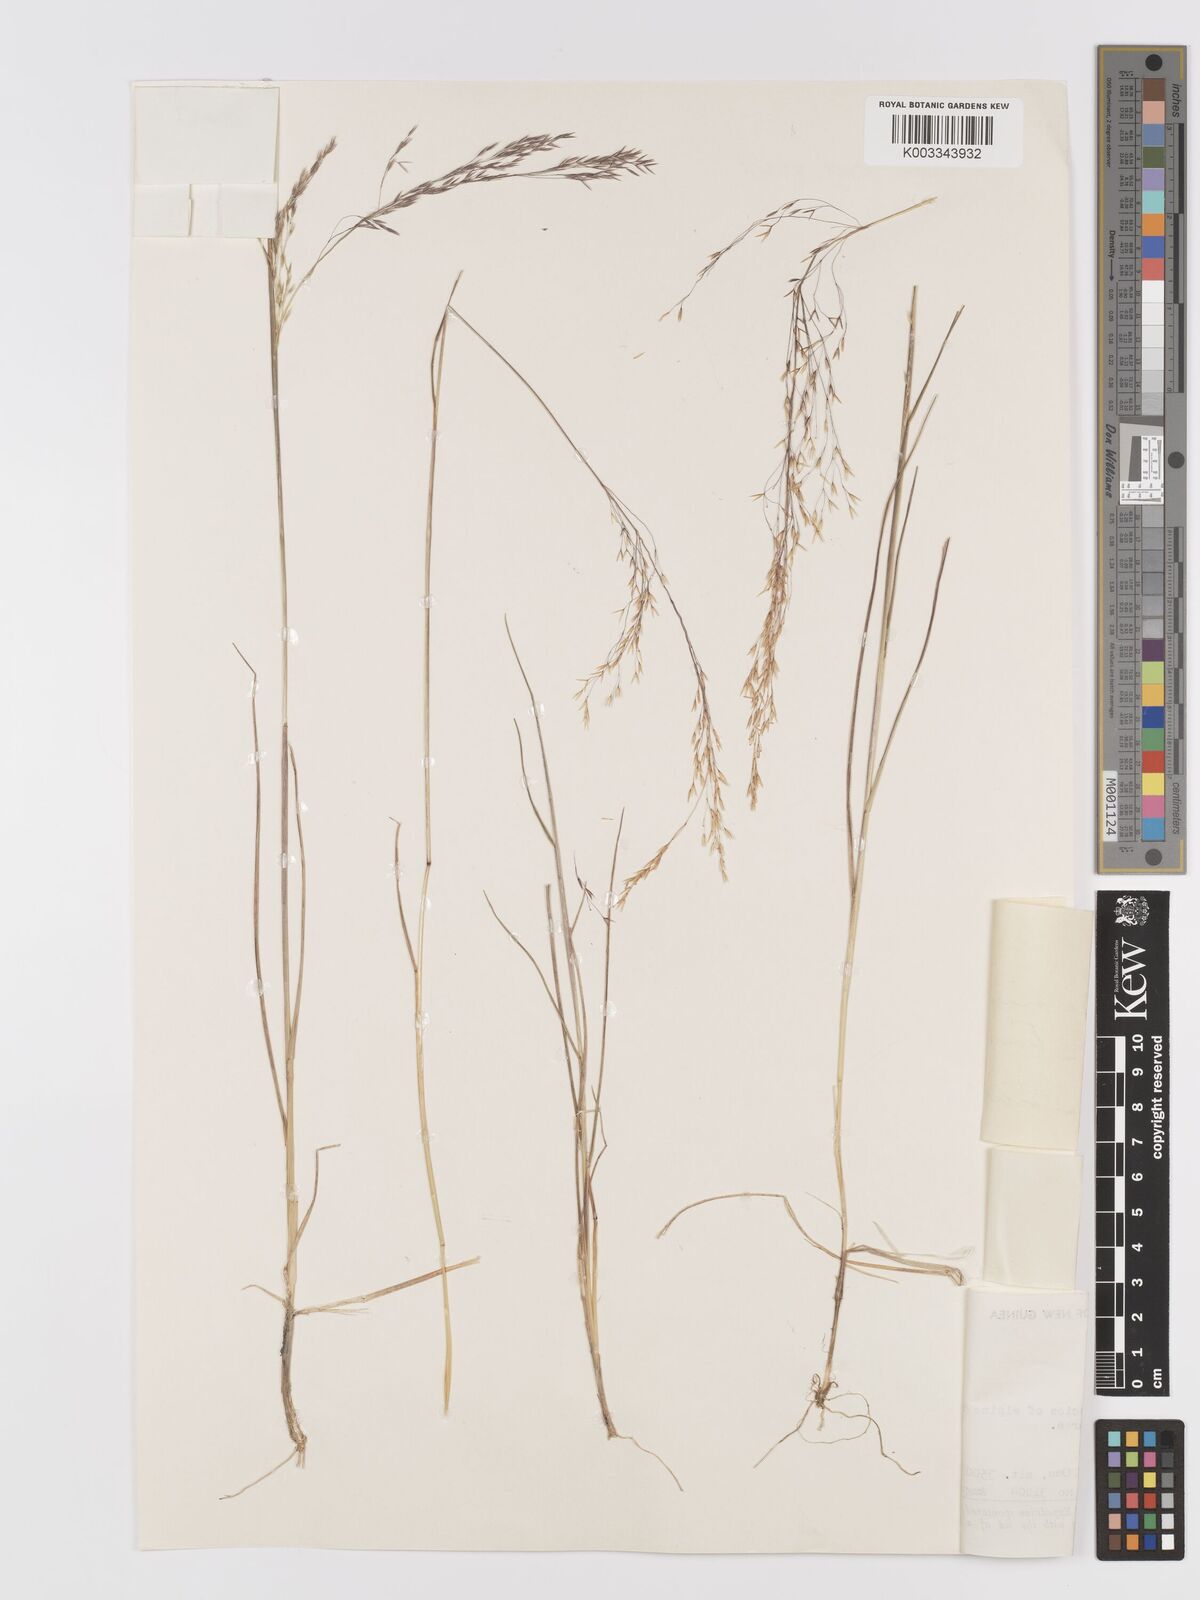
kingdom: Plantae
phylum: Tracheophyta
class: Liliopsida
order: Poales
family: Poaceae
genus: Agrostis
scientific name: Agrostis infirma
